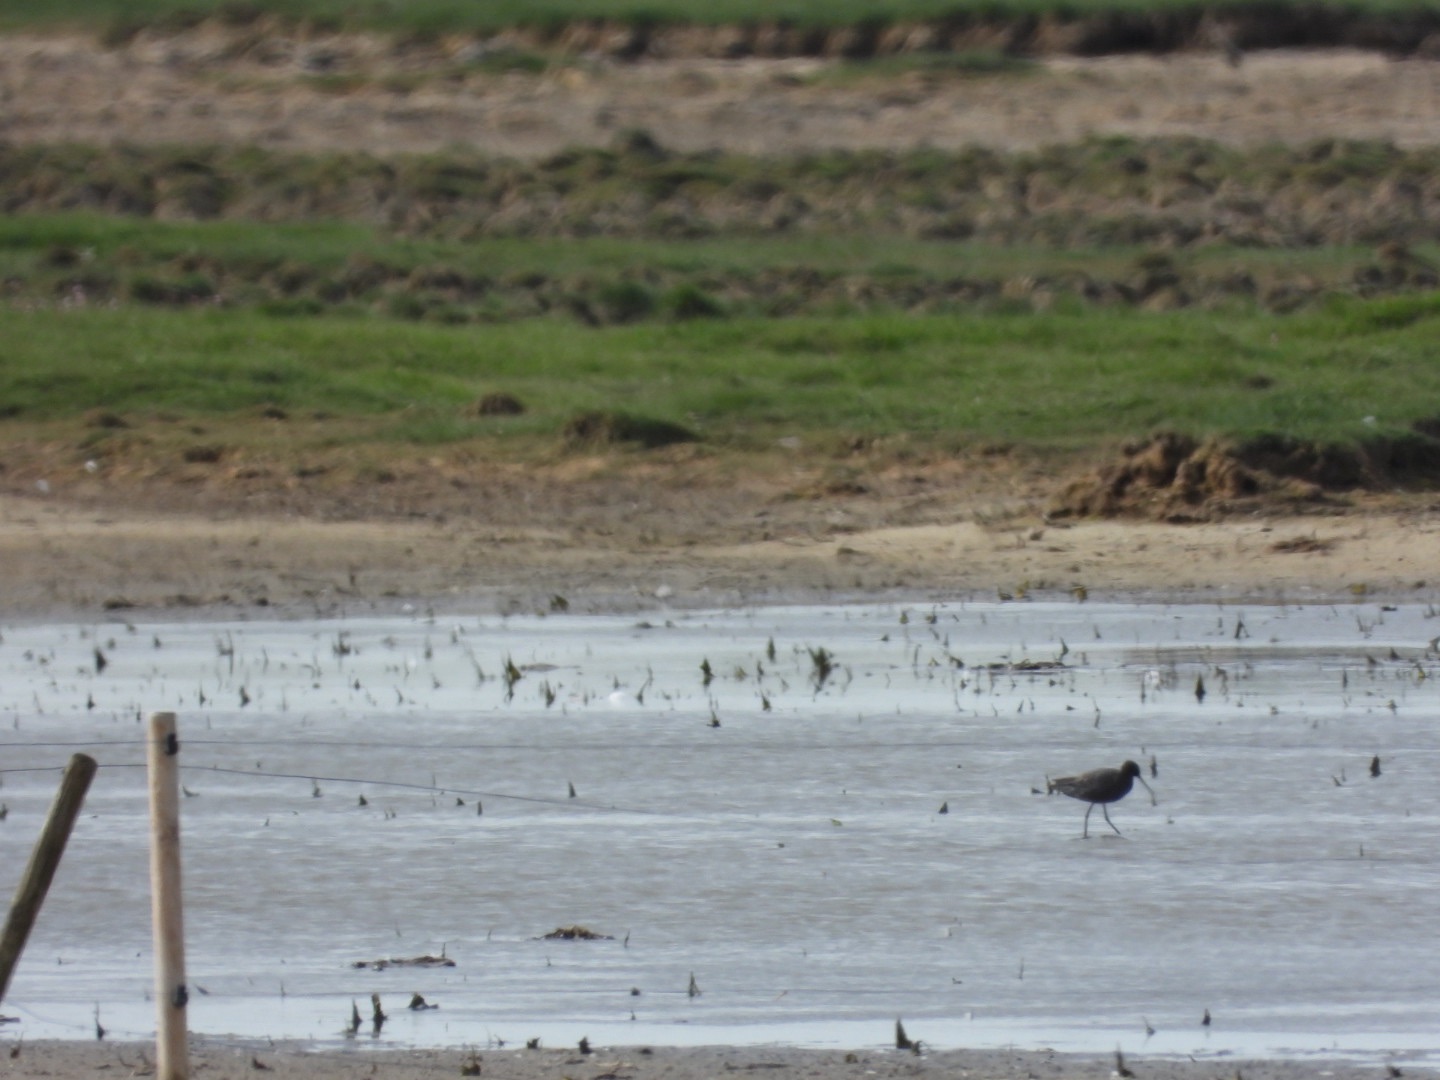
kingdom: Animalia
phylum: Chordata
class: Aves
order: Charadriiformes
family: Scolopacidae
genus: Tringa
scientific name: Tringa erythropus
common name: Sortklire
